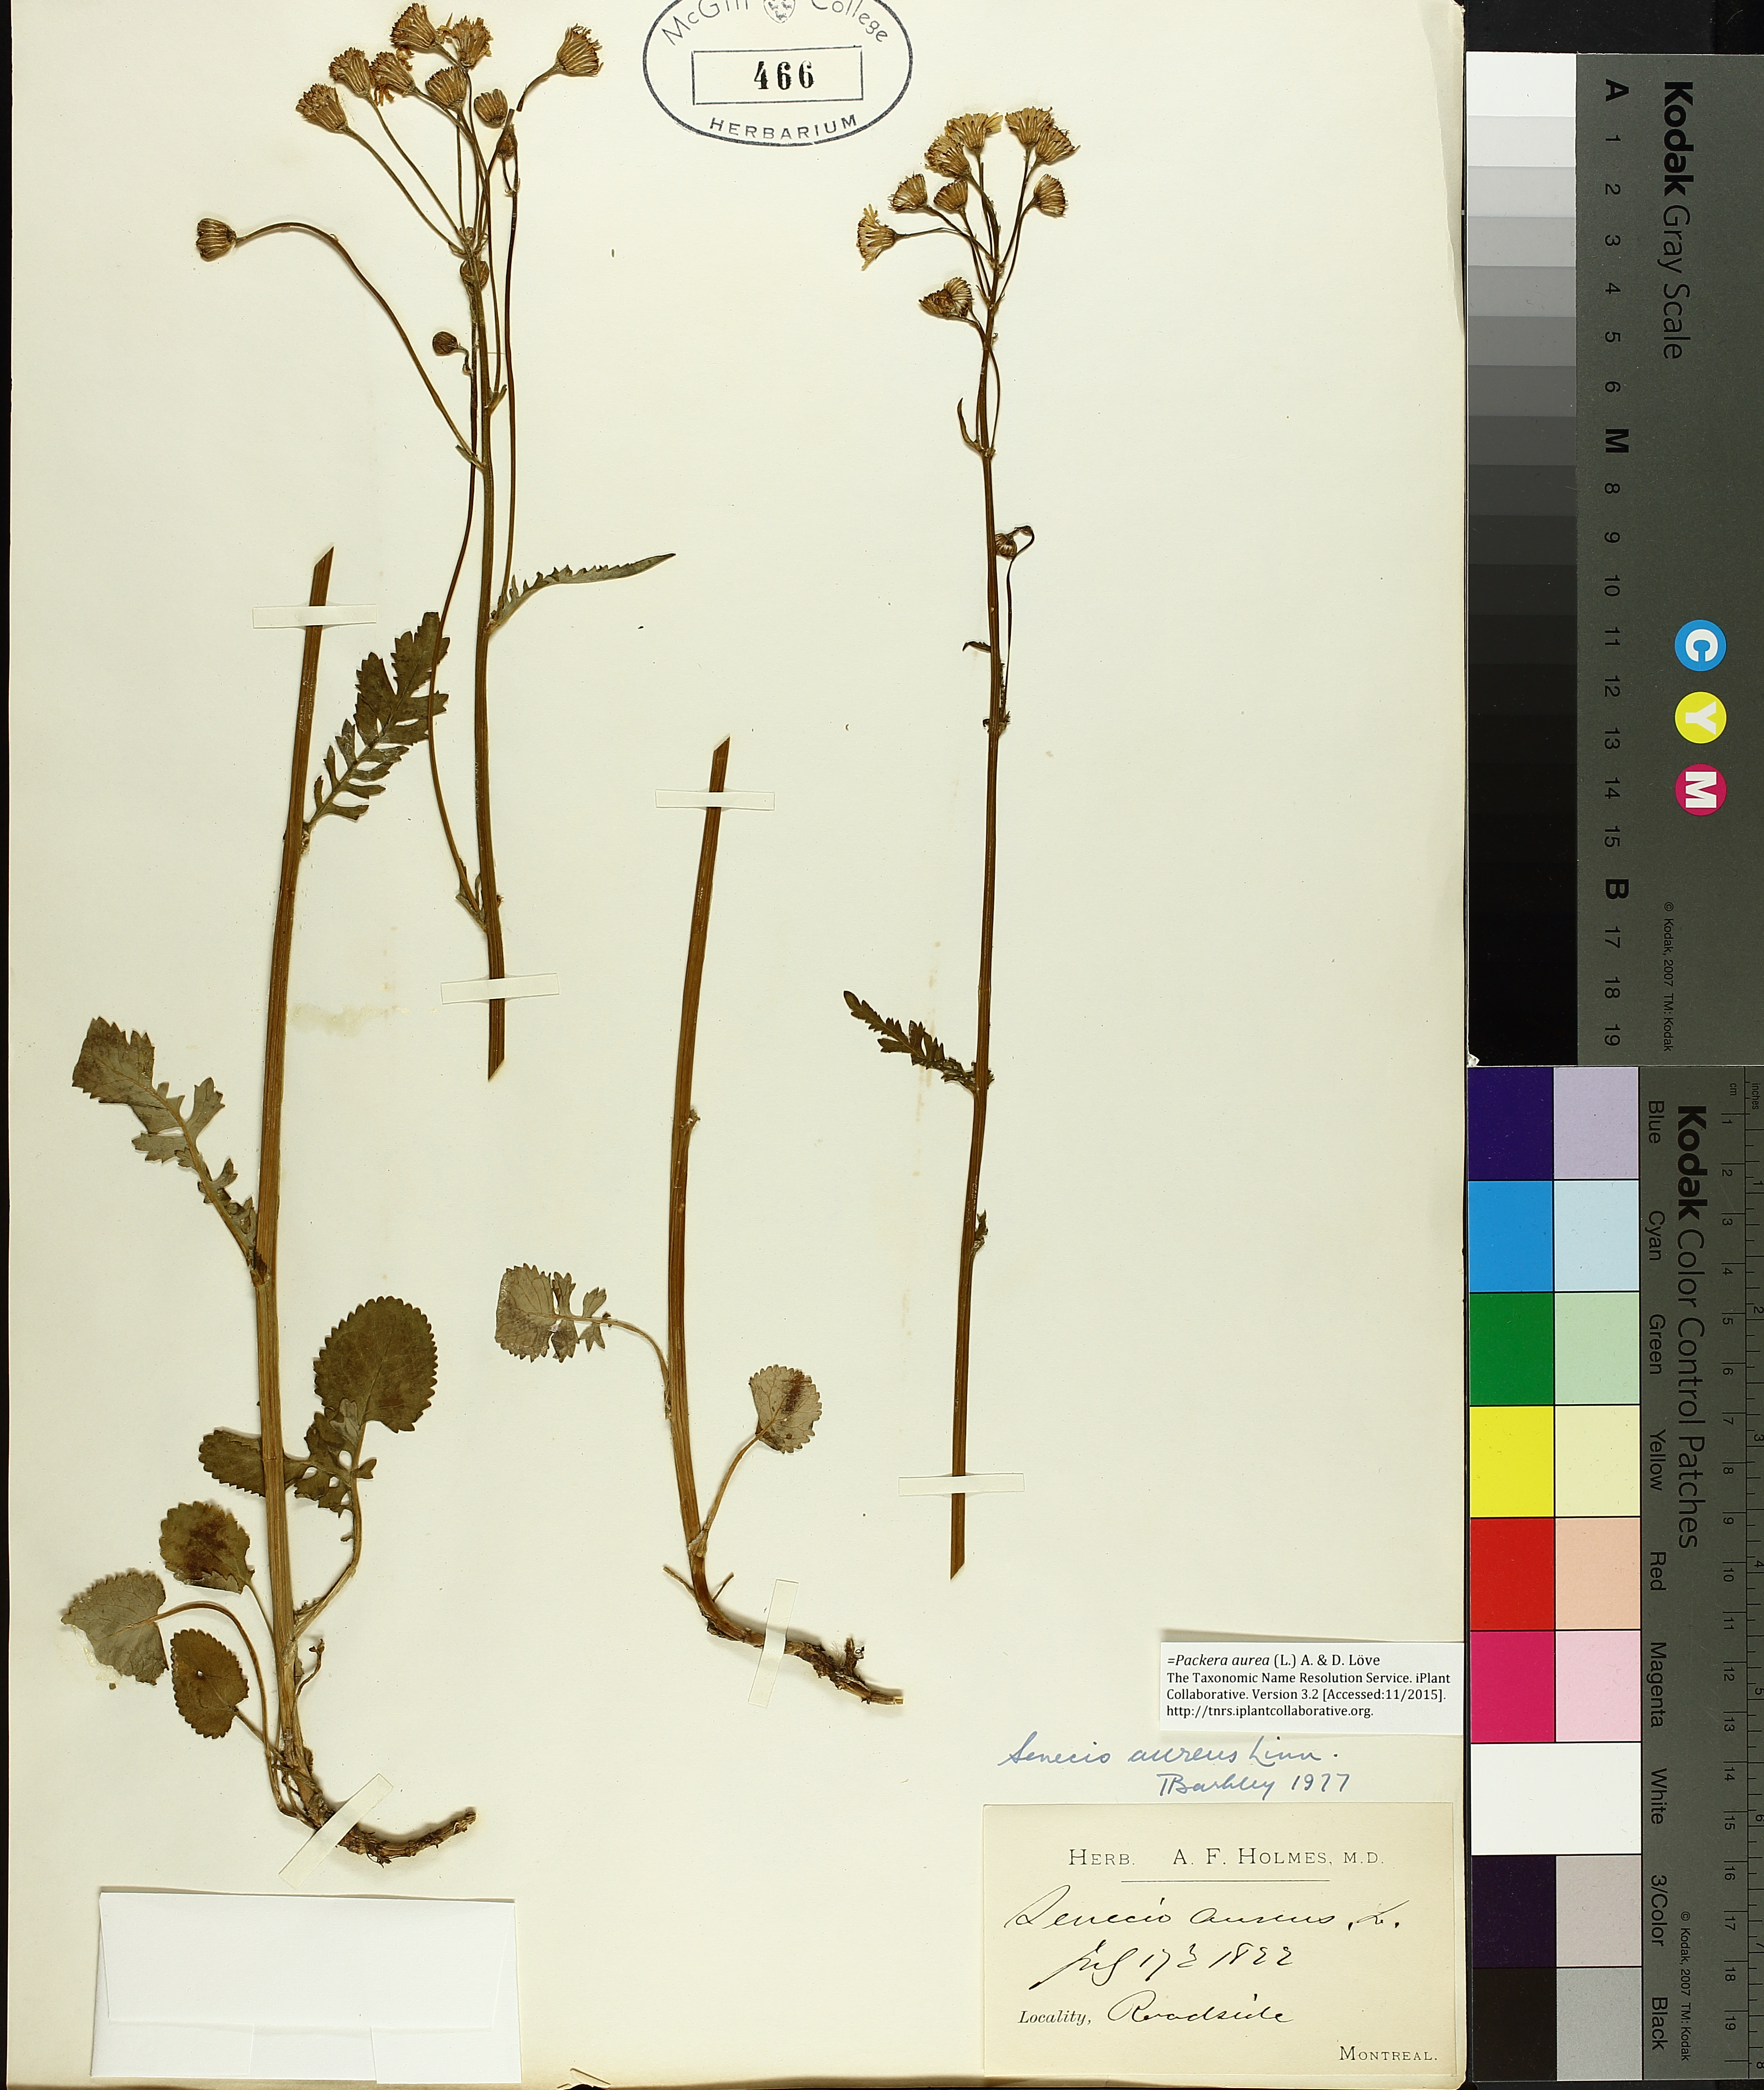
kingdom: Plantae
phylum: Tracheophyta
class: Magnoliopsida
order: Asterales
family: Asteraceae
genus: Packera
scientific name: Packera aurea
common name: Golden groundsel
